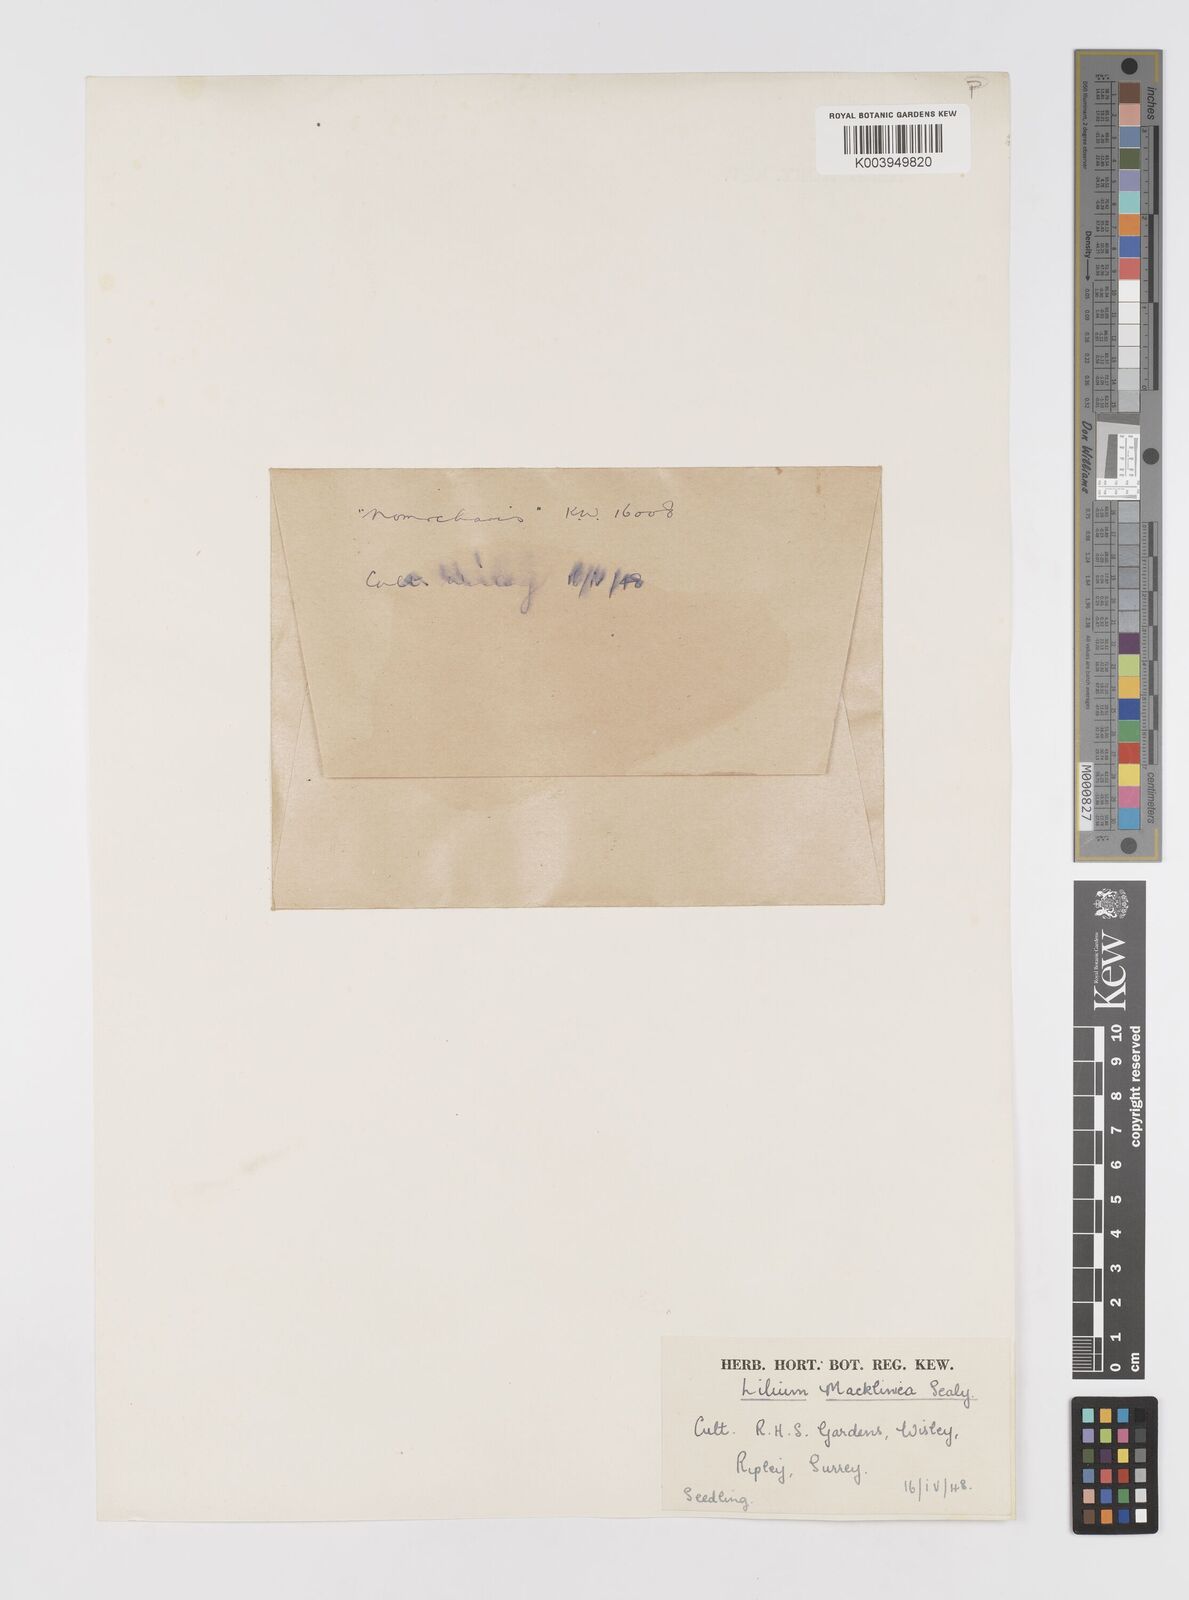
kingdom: Plantae
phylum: Tracheophyta
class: Liliopsida
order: Liliales
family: Liliaceae
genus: Lilium
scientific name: Lilium mackliniae
